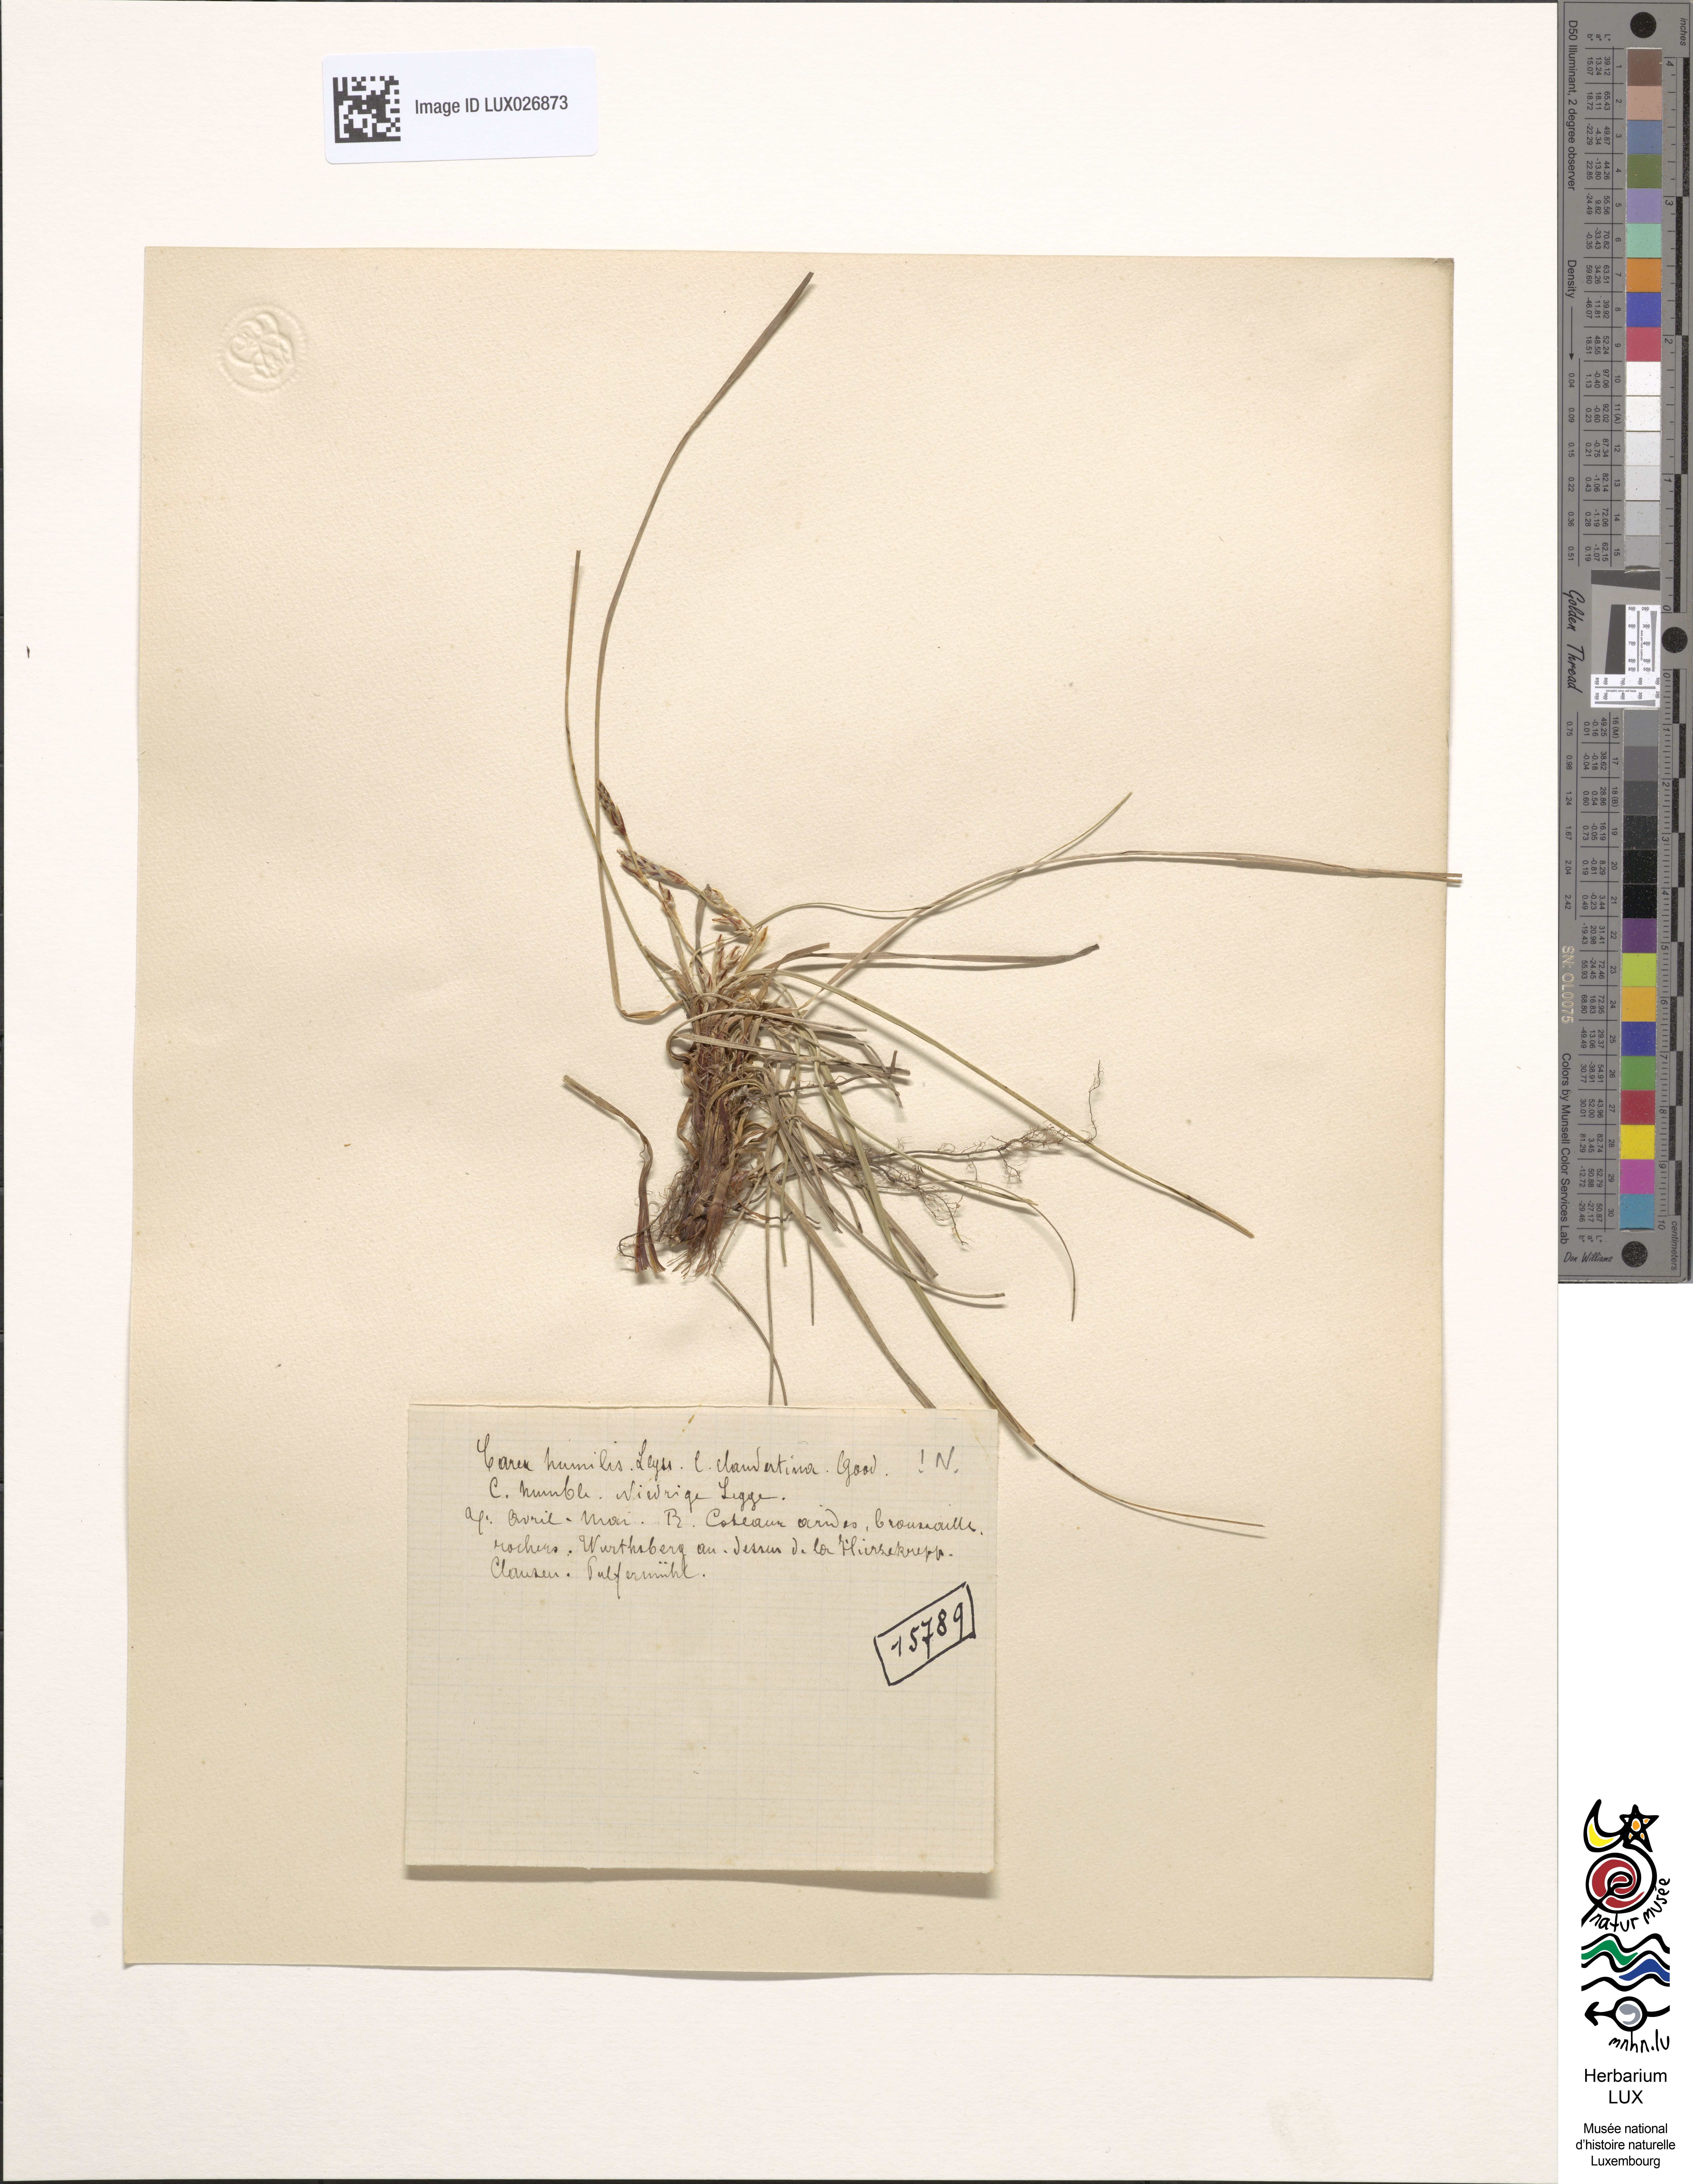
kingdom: Plantae
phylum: Tracheophyta
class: Liliopsida
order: Poales
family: Cyperaceae
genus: Carex
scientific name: Carex humilis
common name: Dwarf sedge
